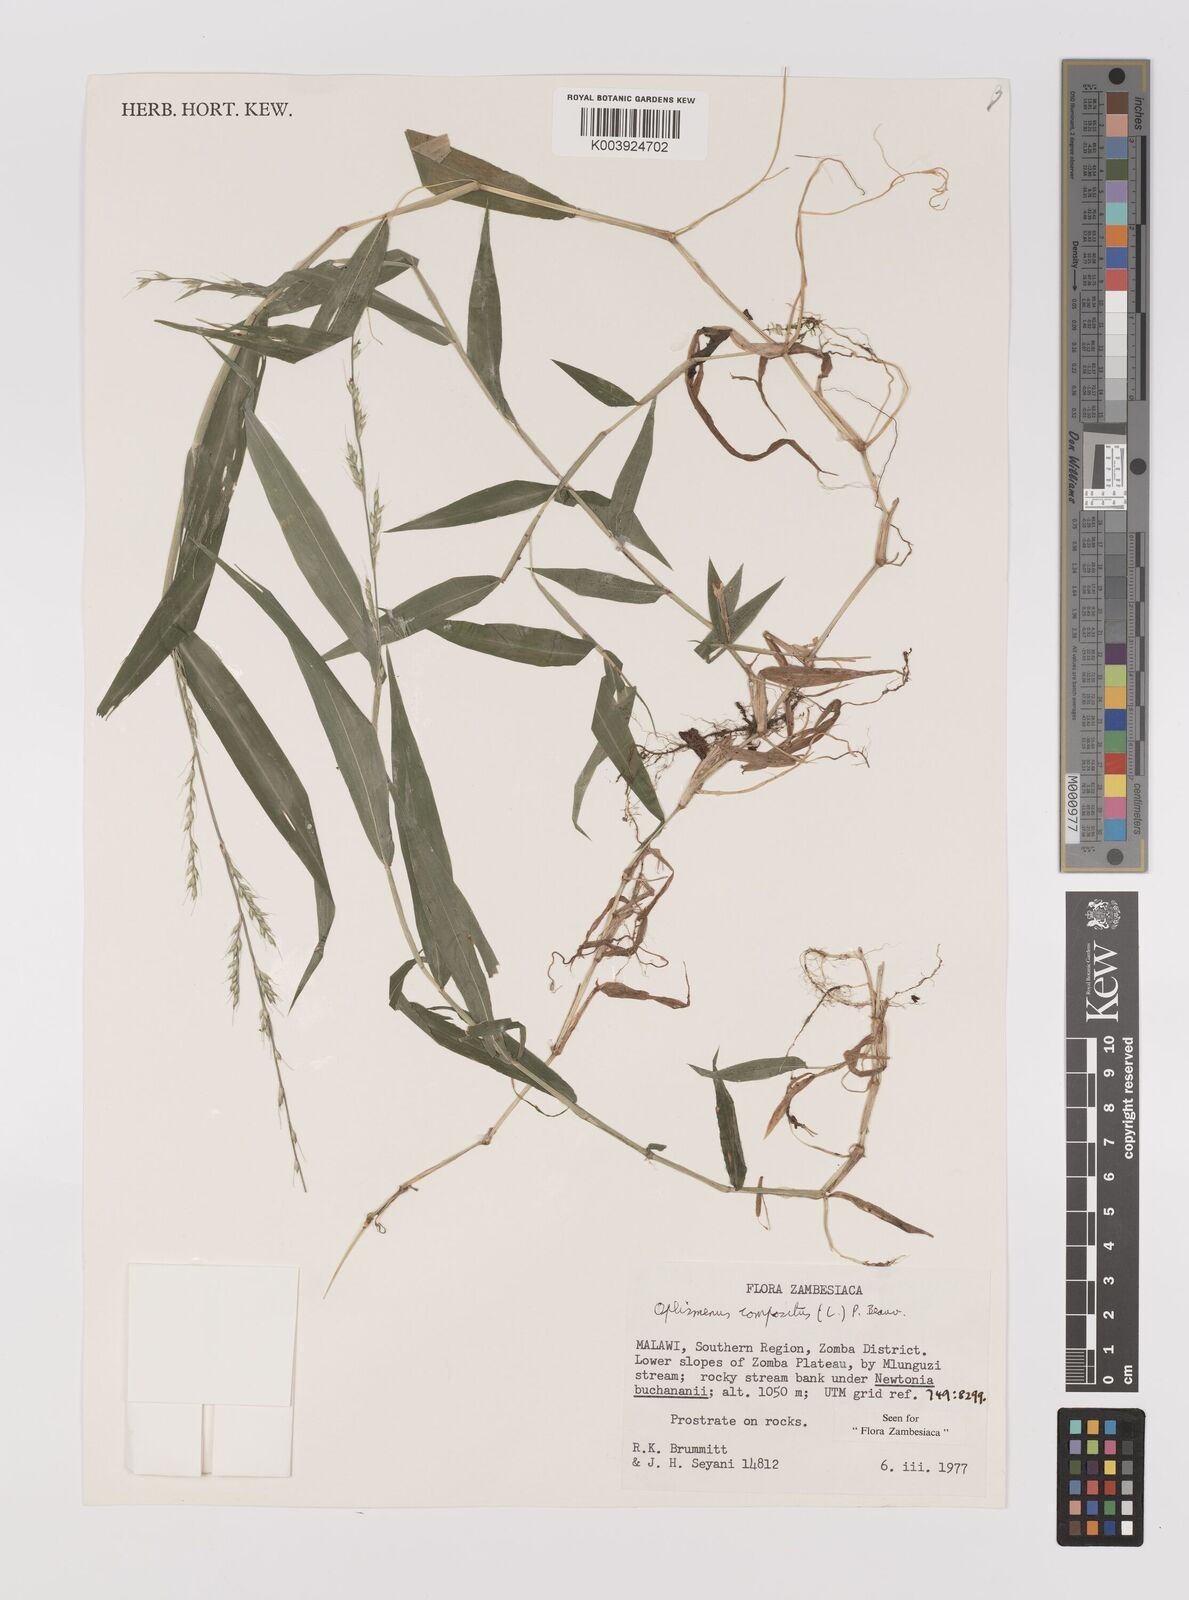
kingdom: Plantae
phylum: Tracheophyta
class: Liliopsida
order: Poales
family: Poaceae
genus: Oplismenus
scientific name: Oplismenus compositus
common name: Running mountain grass
